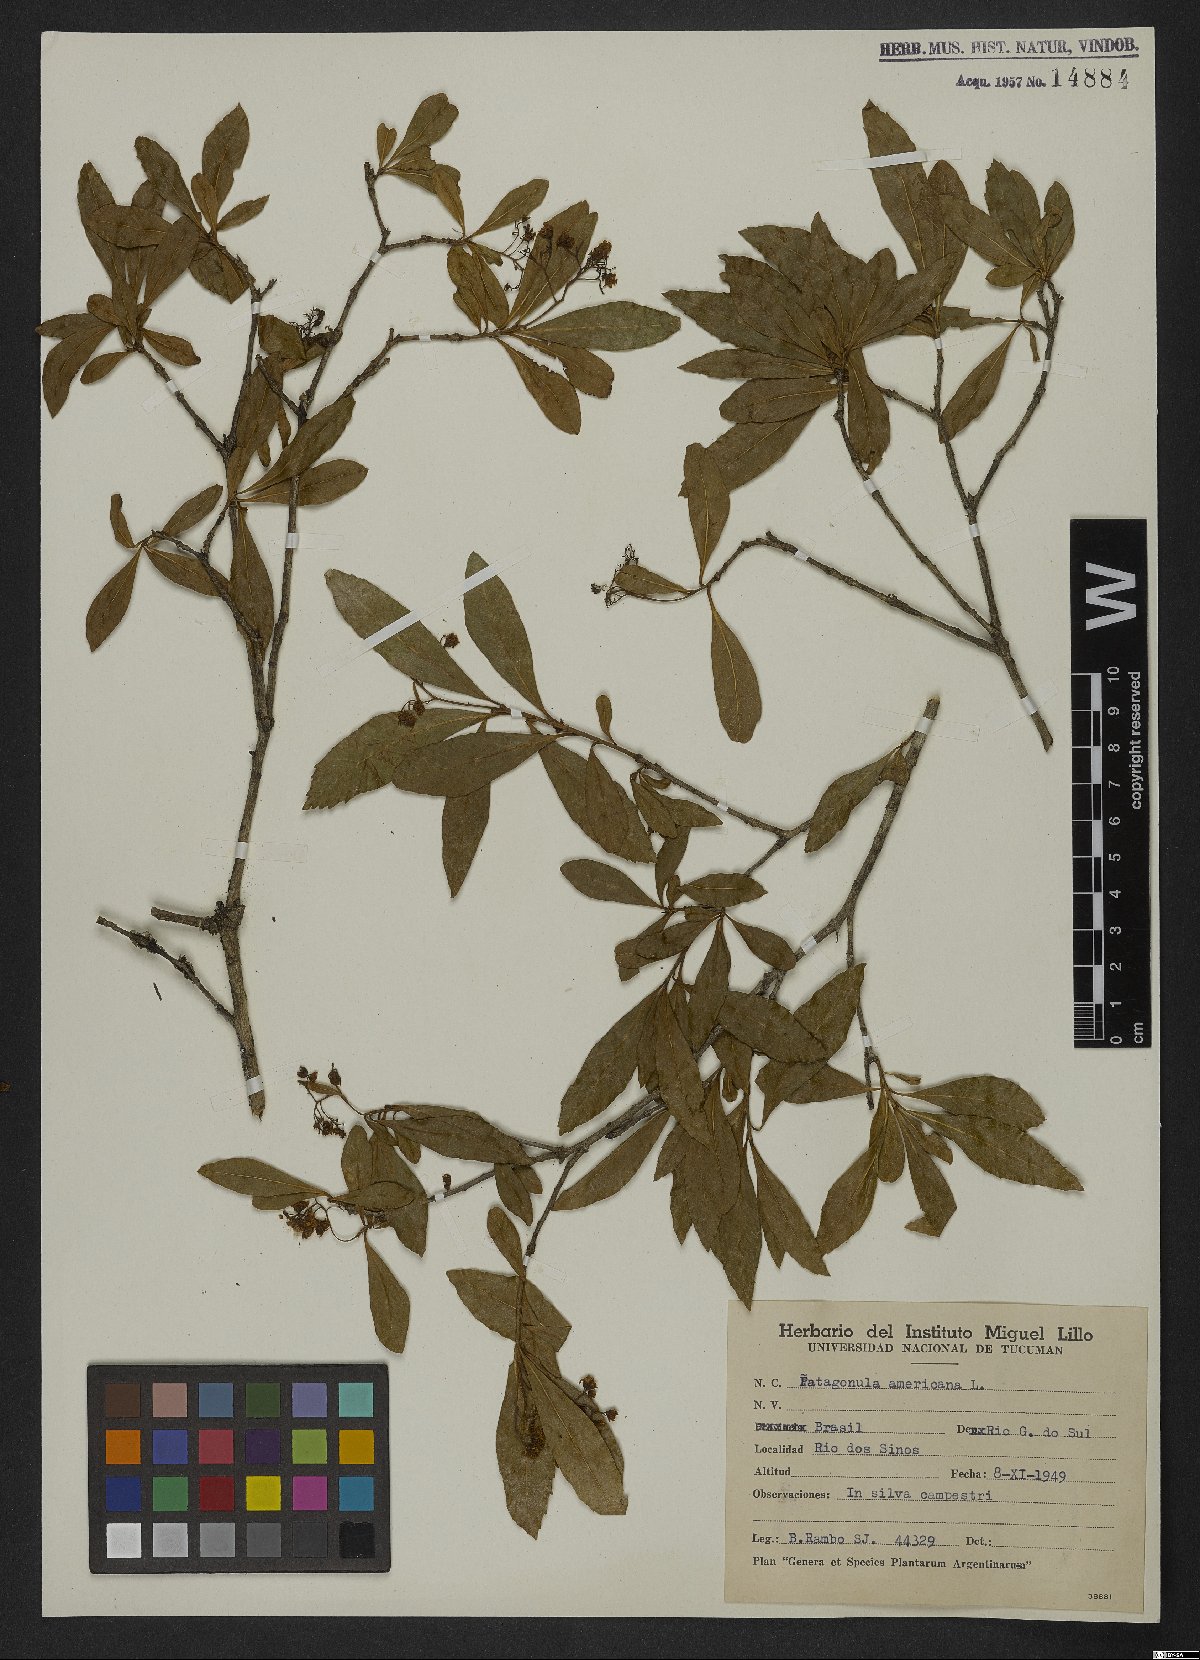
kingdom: Plantae
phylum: Tracheophyta
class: Magnoliopsida
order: Boraginales
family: Cordiaceae
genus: Cordia
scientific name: Cordia americana
